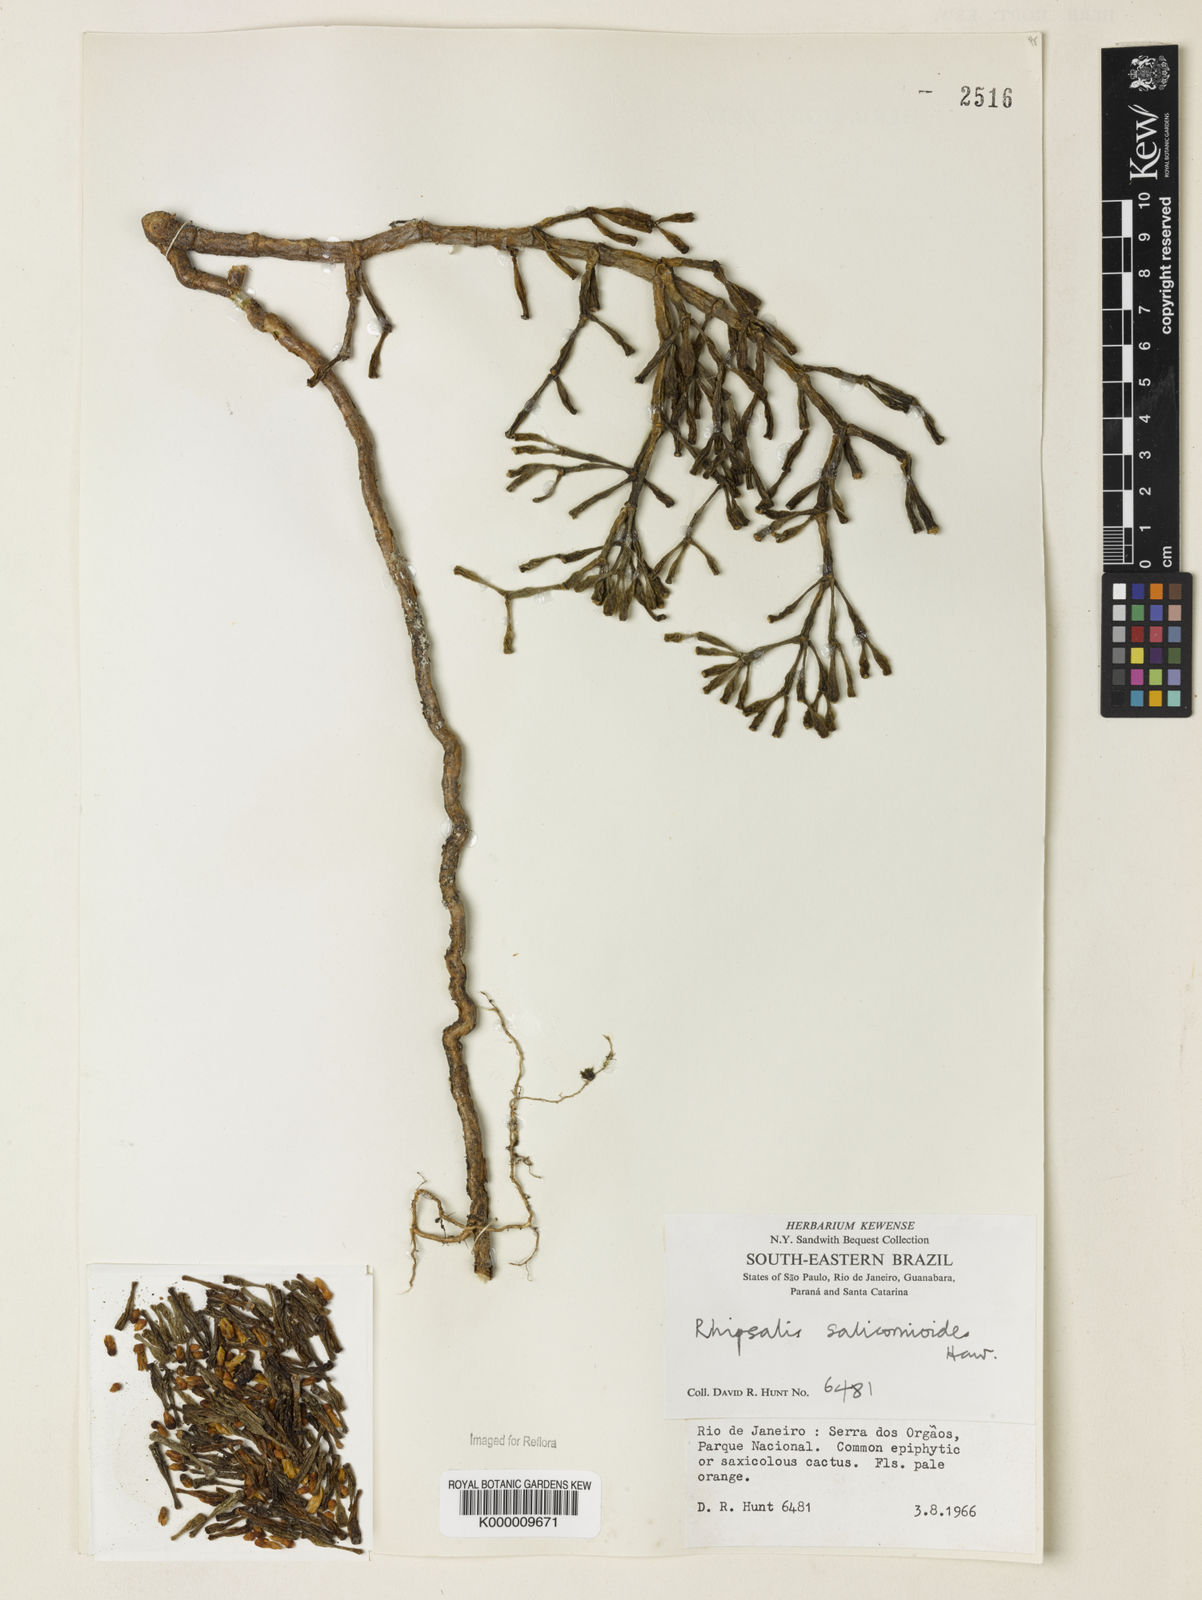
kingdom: Plantae
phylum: Tracheophyta
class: Magnoliopsida
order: Caryophyllales
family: Cactaceae
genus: Hatiora
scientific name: Hatiora
